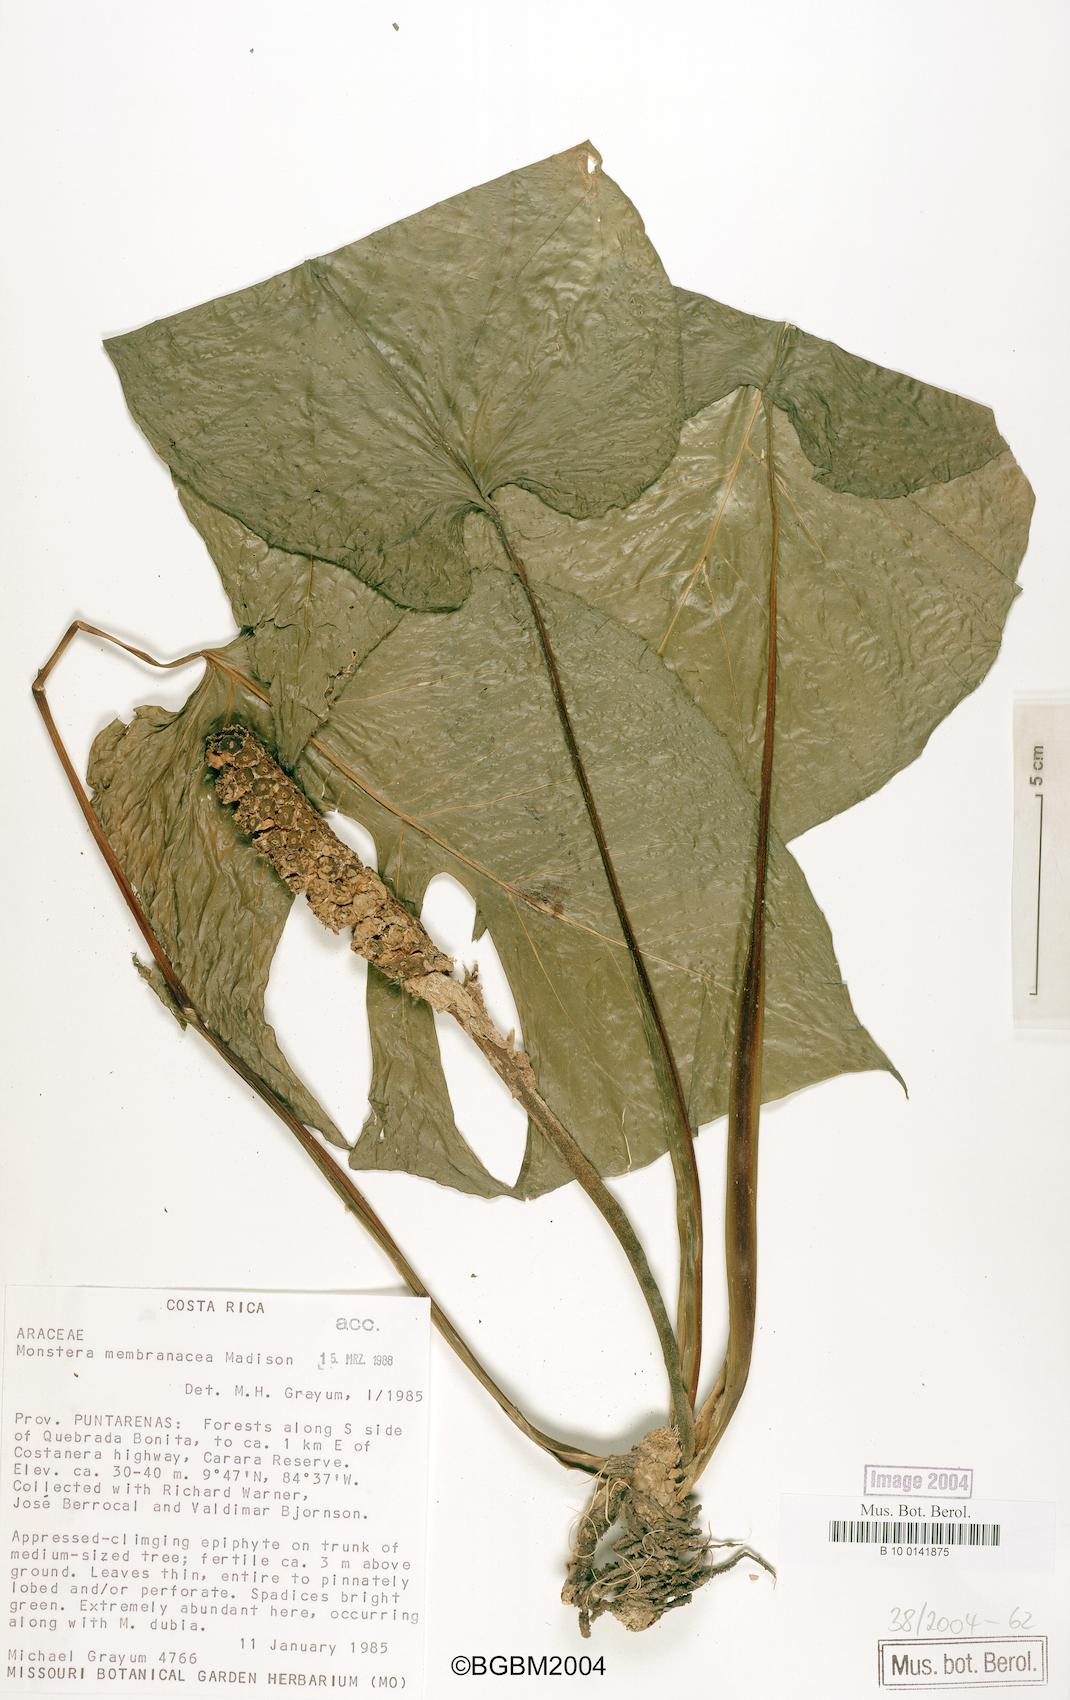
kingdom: Plantae
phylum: Tracheophyta
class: Liliopsida
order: Alismatales
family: Araceae
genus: Monstera
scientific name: Monstera membranacea
